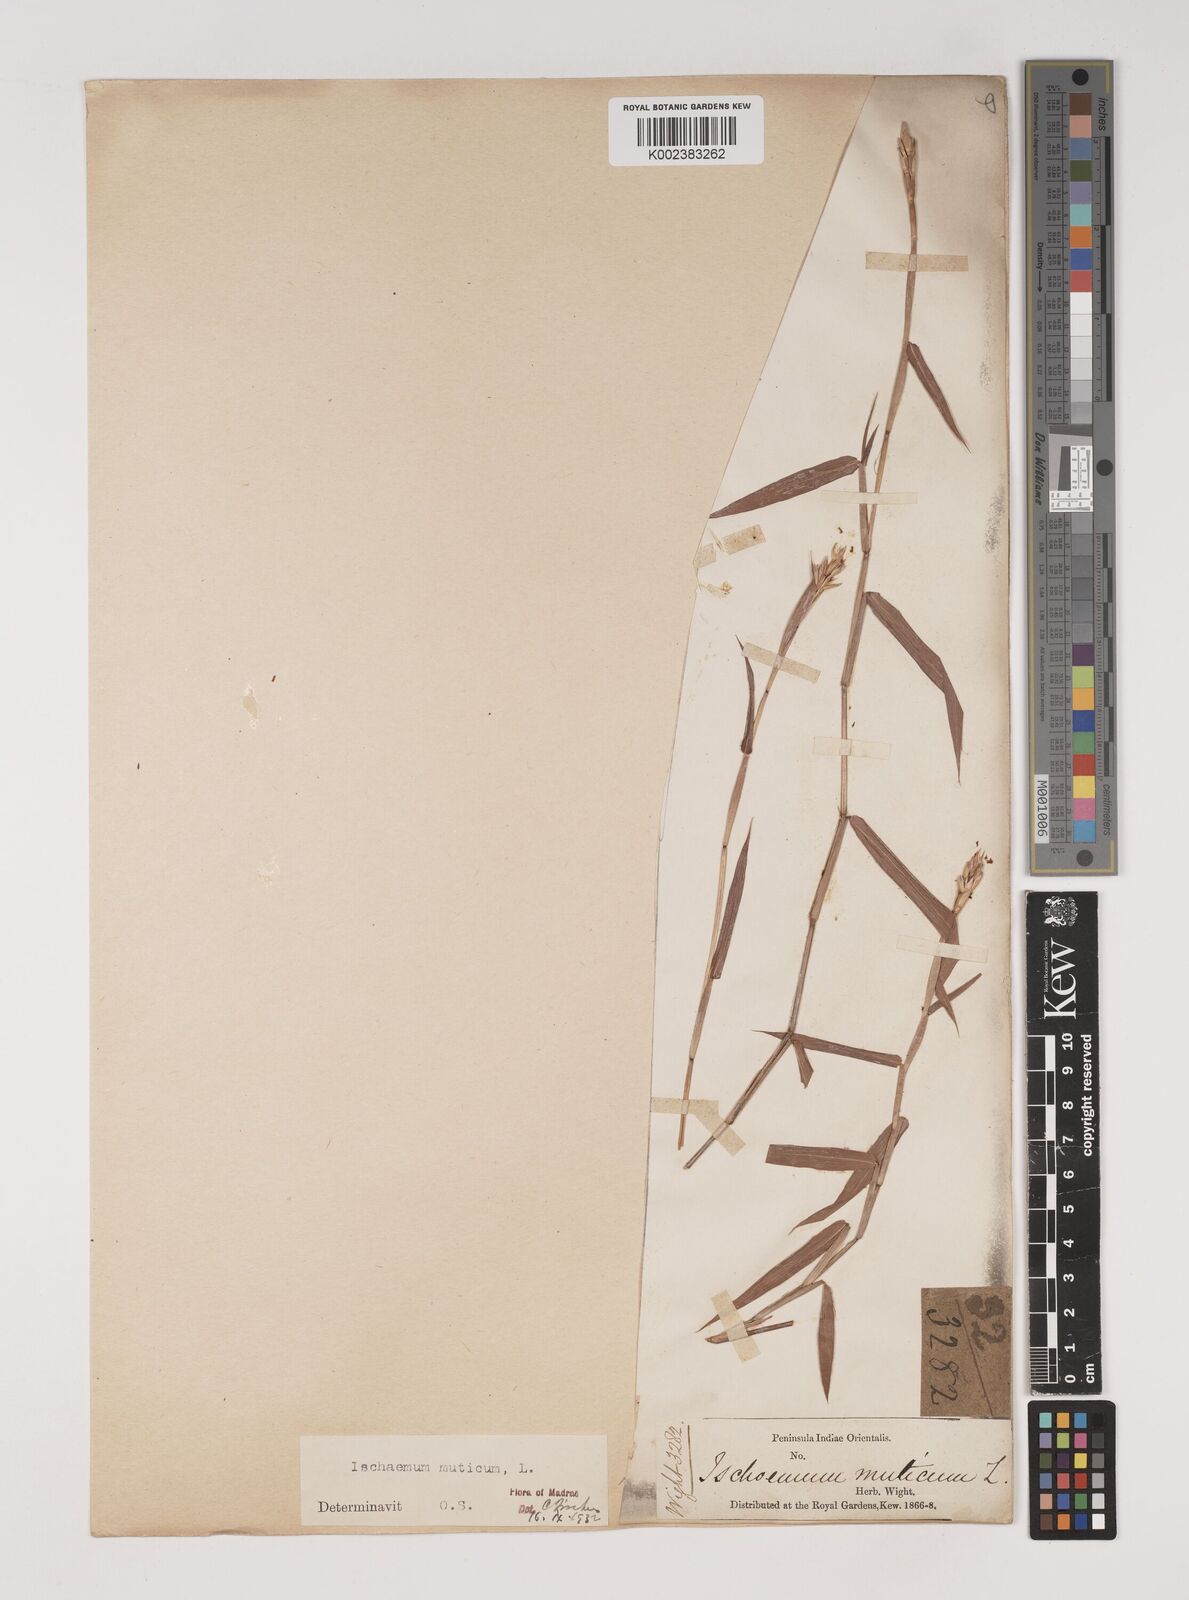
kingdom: Plantae
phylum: Tracheophyta
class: Liliopsida
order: Poales
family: Poaceae
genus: Ischaemum
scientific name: Ischaemum muticum
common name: Drought grass
